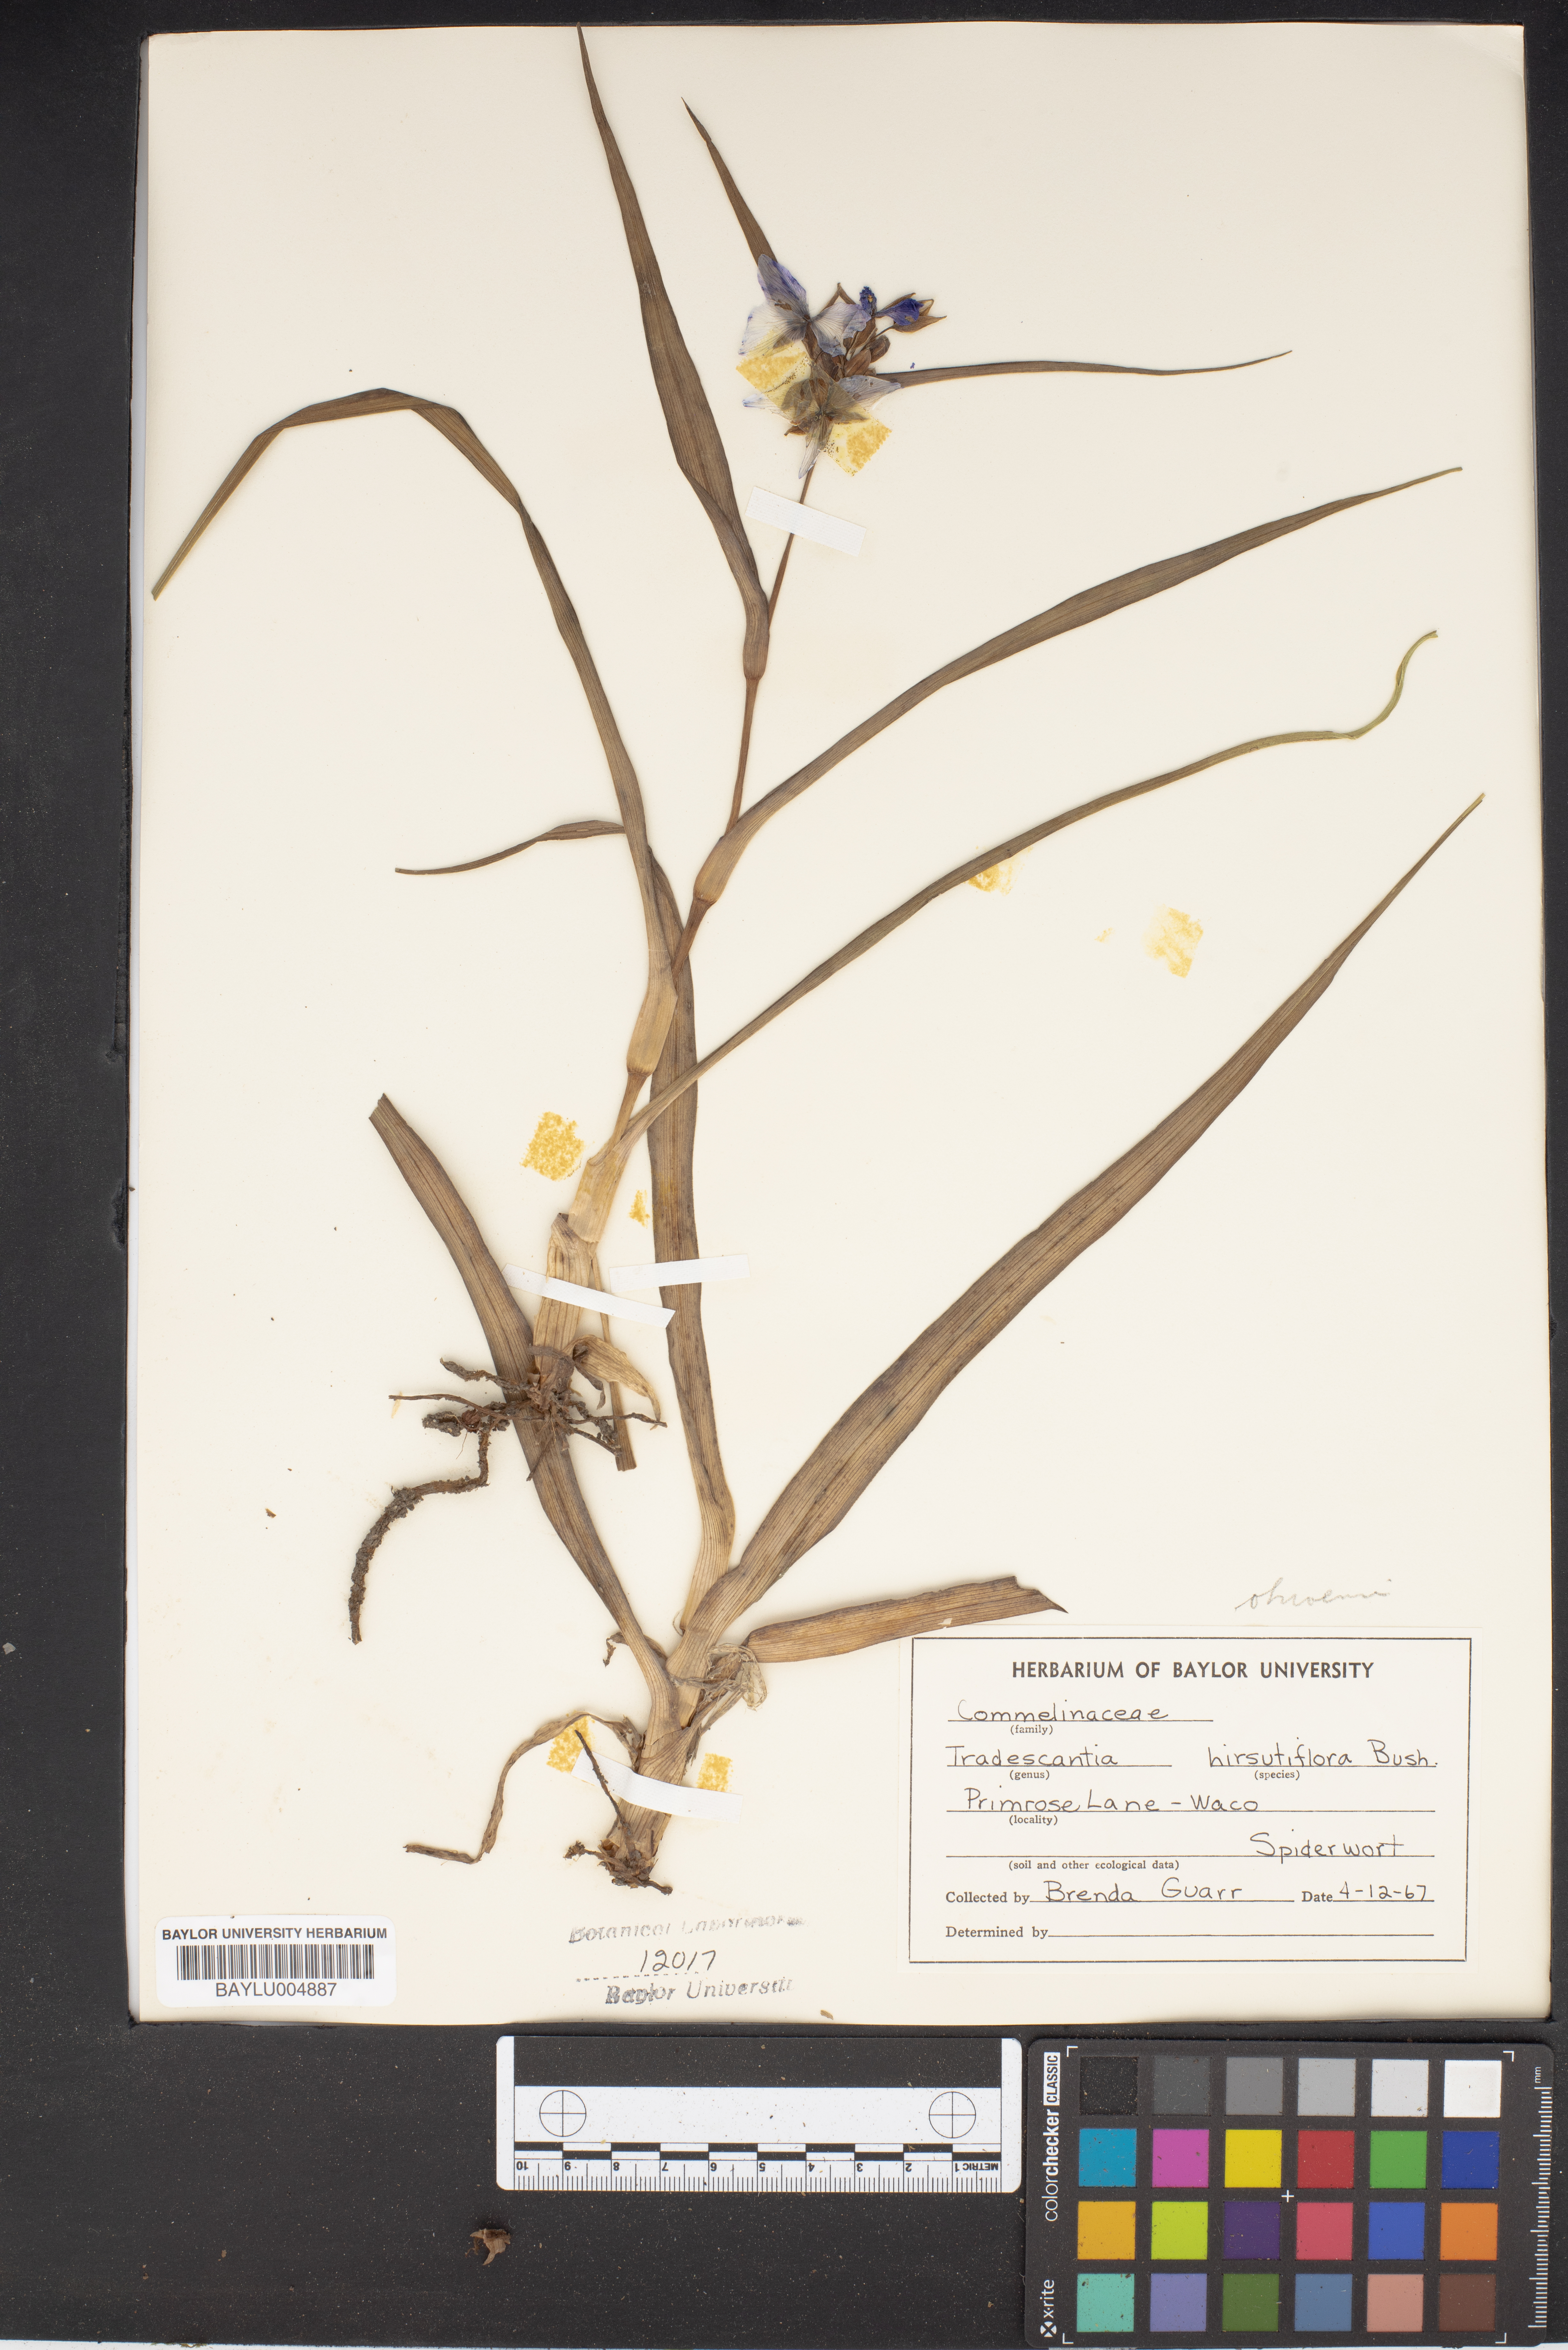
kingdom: Plantae
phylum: Tracheophyta
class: Liliopsida
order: Commelinales
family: Commelinaceae
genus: Tradescantia
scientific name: Tradescantia hirsutiflora
